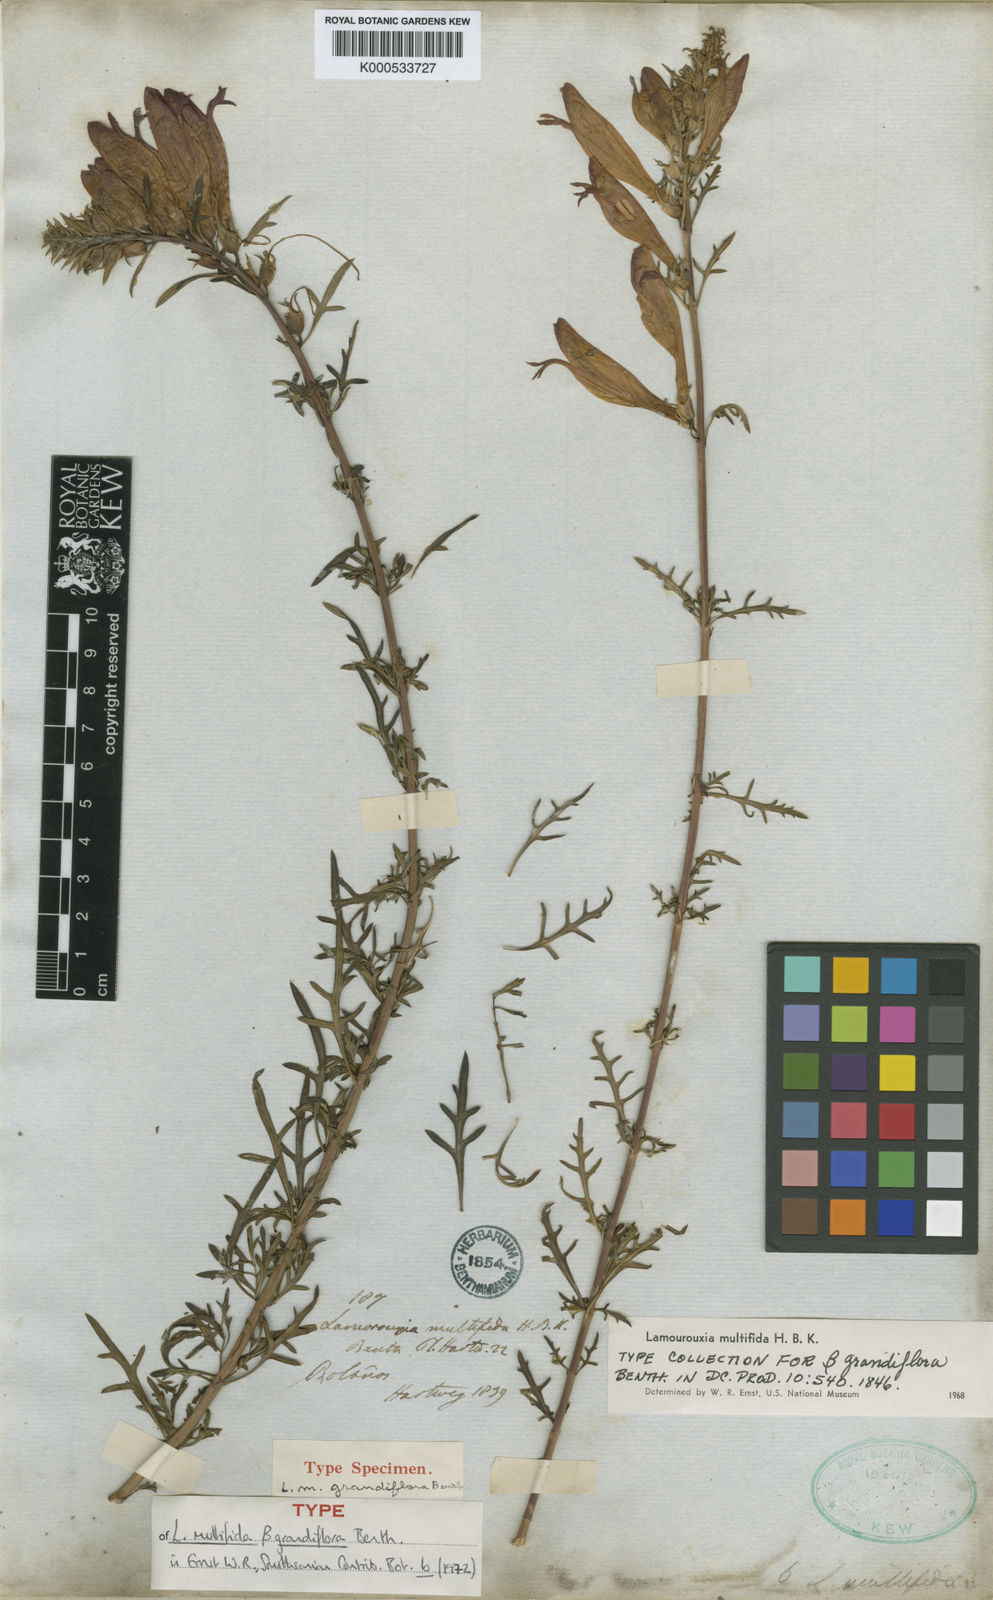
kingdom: Plantae
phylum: Tracheophyta
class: Magnoliopsida
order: Lamiales
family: Orobanchaceae
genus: Lamourouxia
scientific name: Lamourouxia multifida
